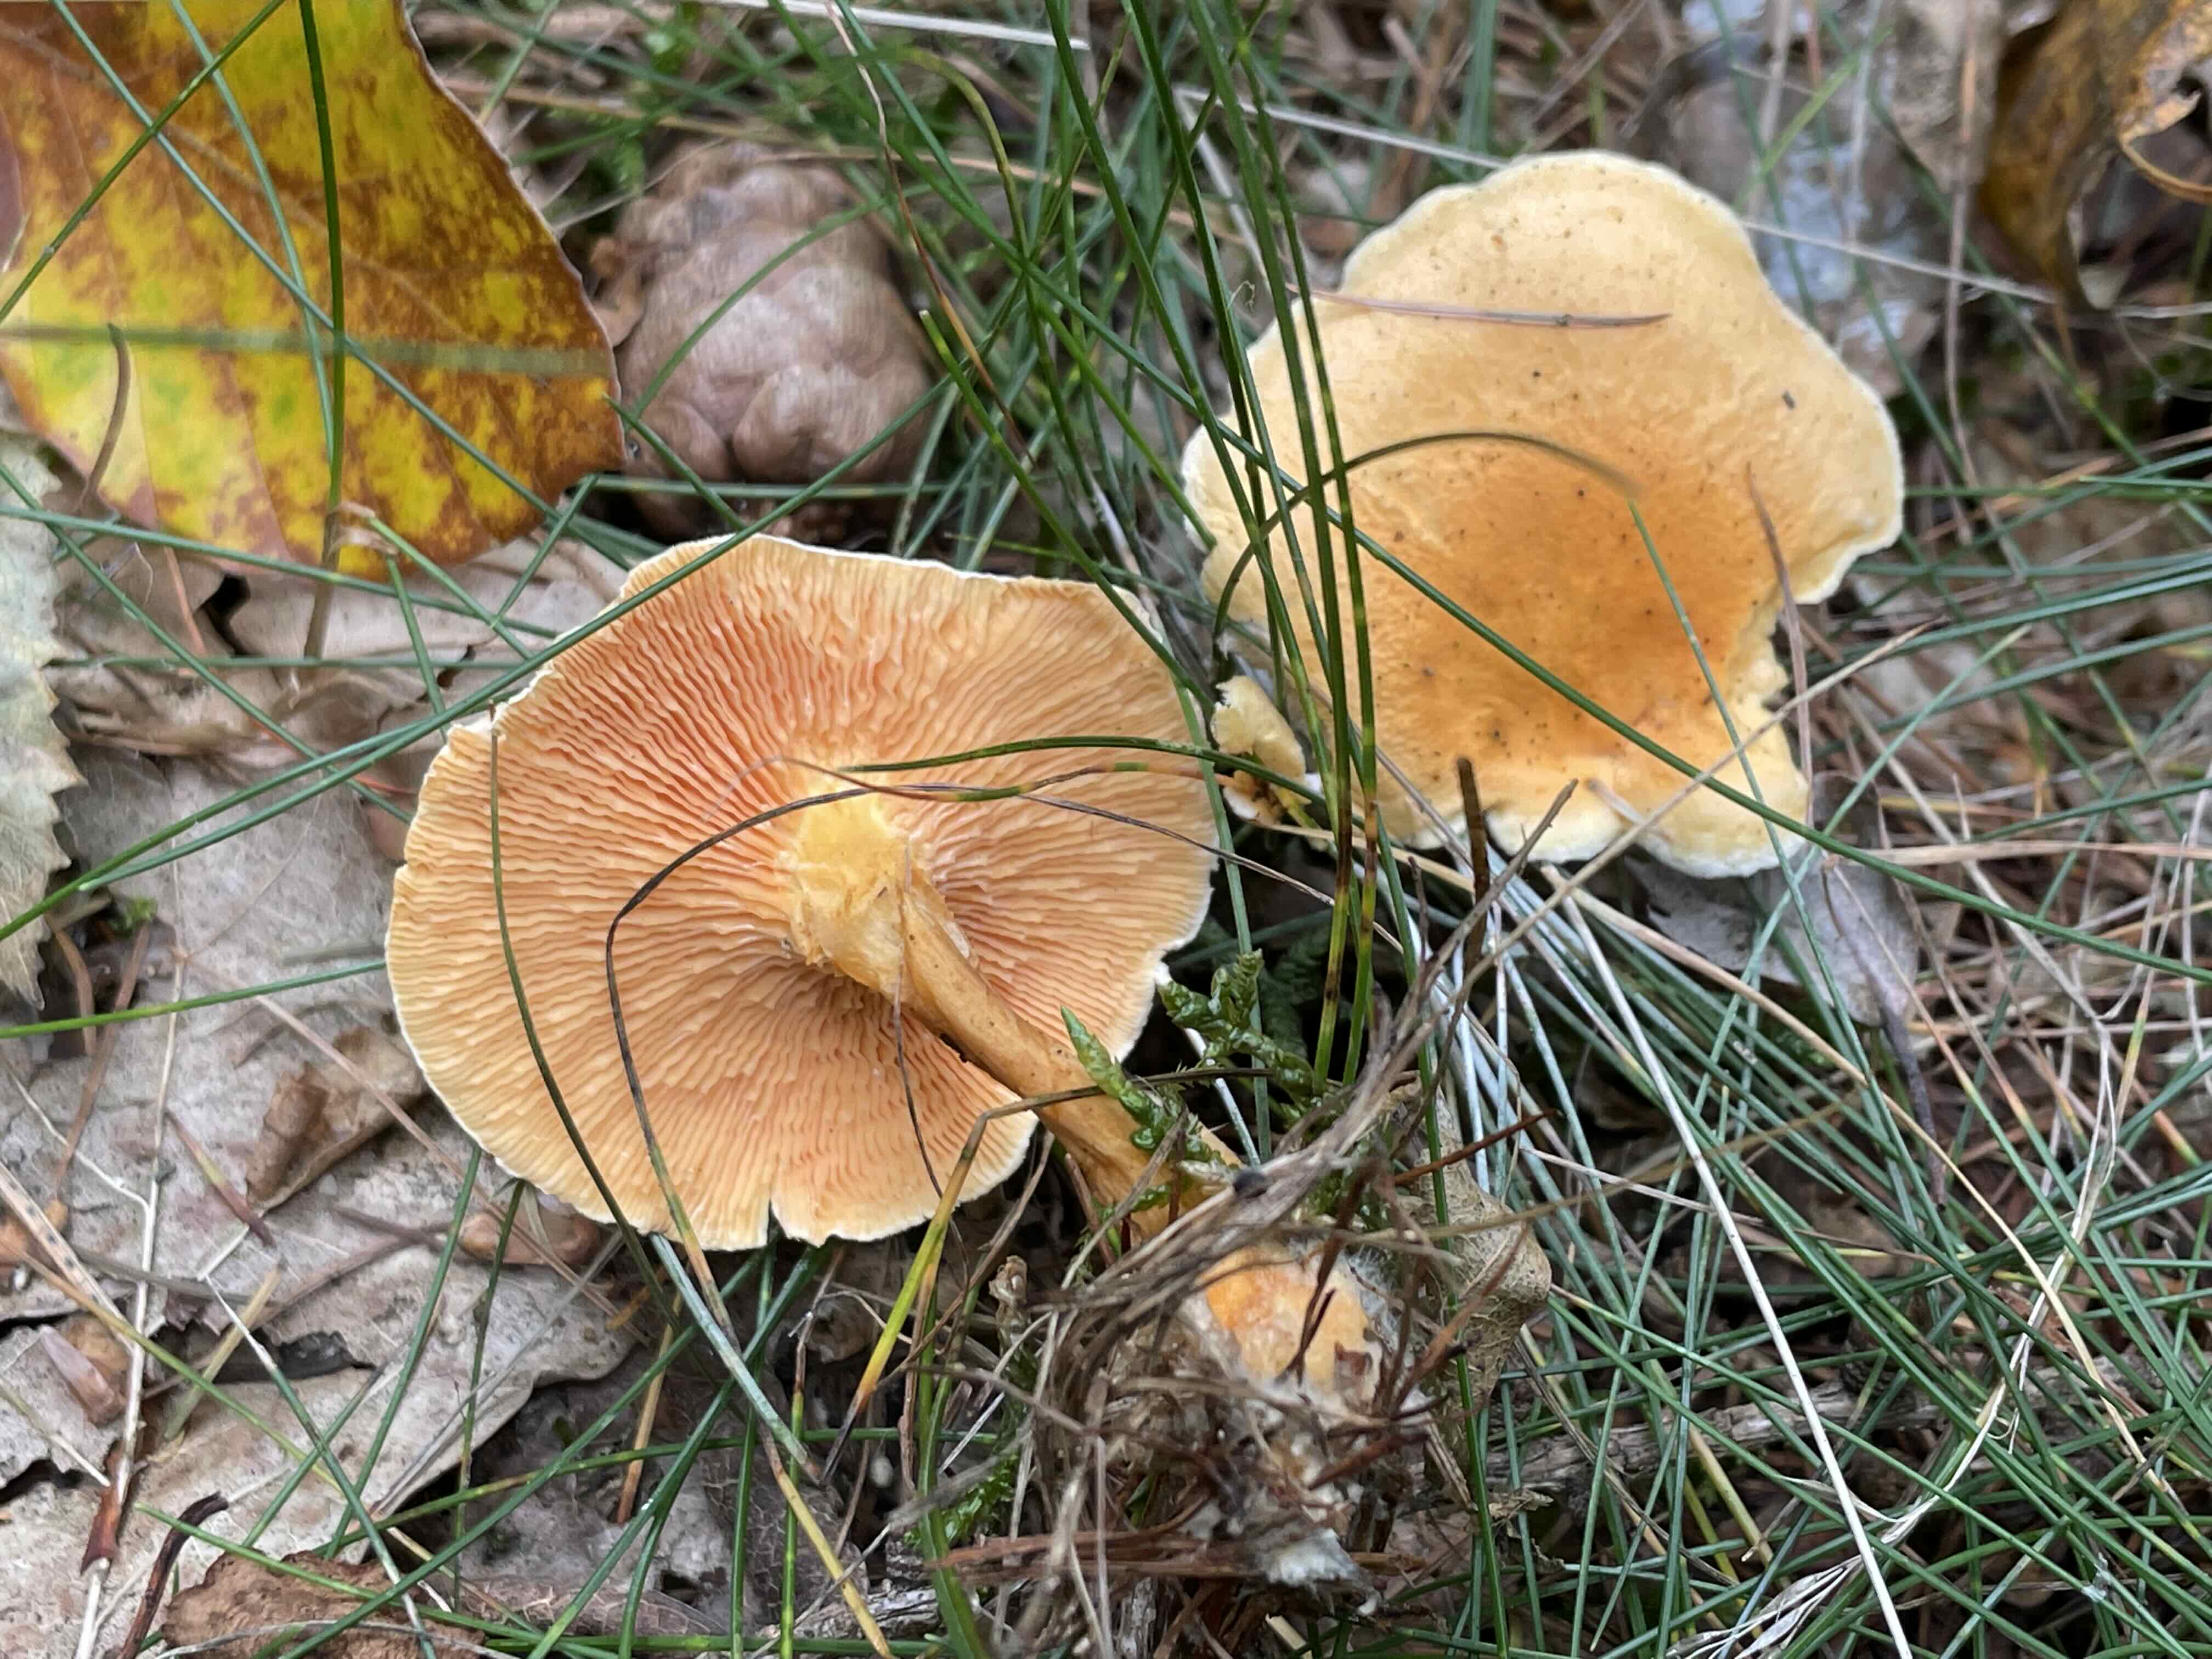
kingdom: Fungi
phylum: Basidiomycota
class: Agaricomycetes
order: Boletales
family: Hygrophoropsidaceae
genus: Hygrophoropsis
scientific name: Hygrophoropsis aurantiaca
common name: almindelig orangekantarel
